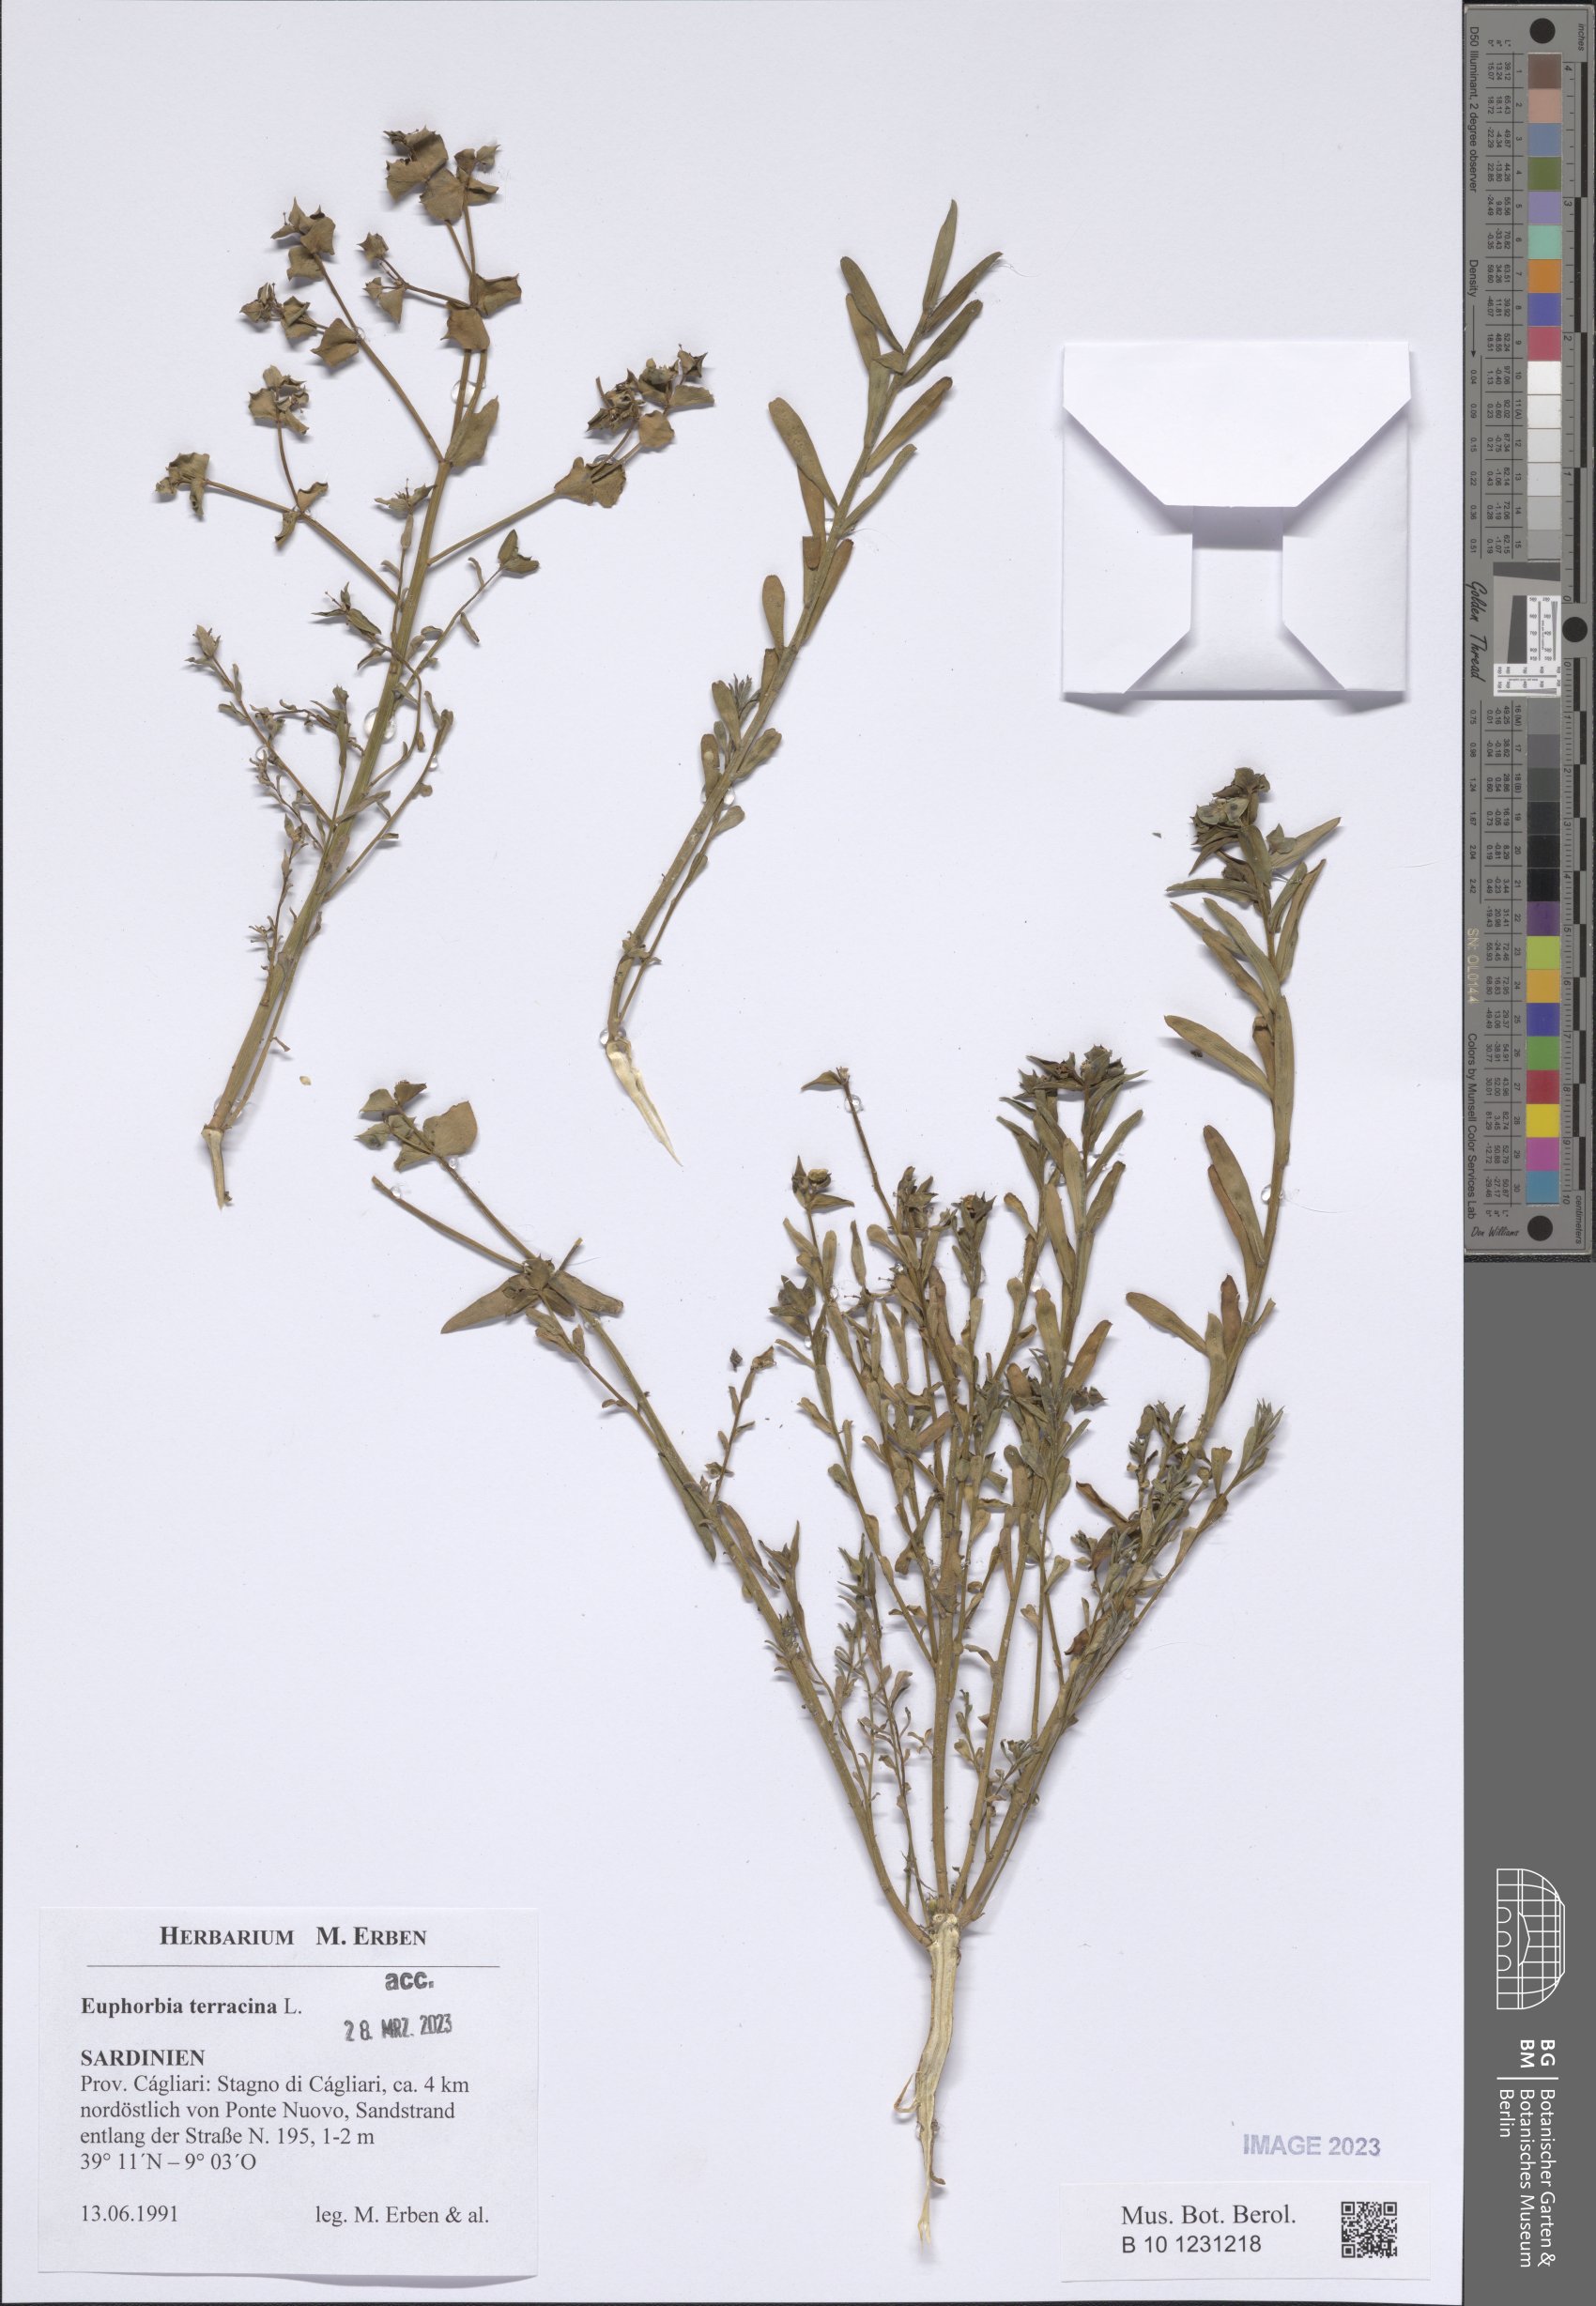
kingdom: Plantae
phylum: Tracheophyta
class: Magnoliopsida
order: Malpighiales
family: Euphorbiaceae
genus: Euphorbia
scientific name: Euphorbia terracina
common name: Geraldton carnation weed
